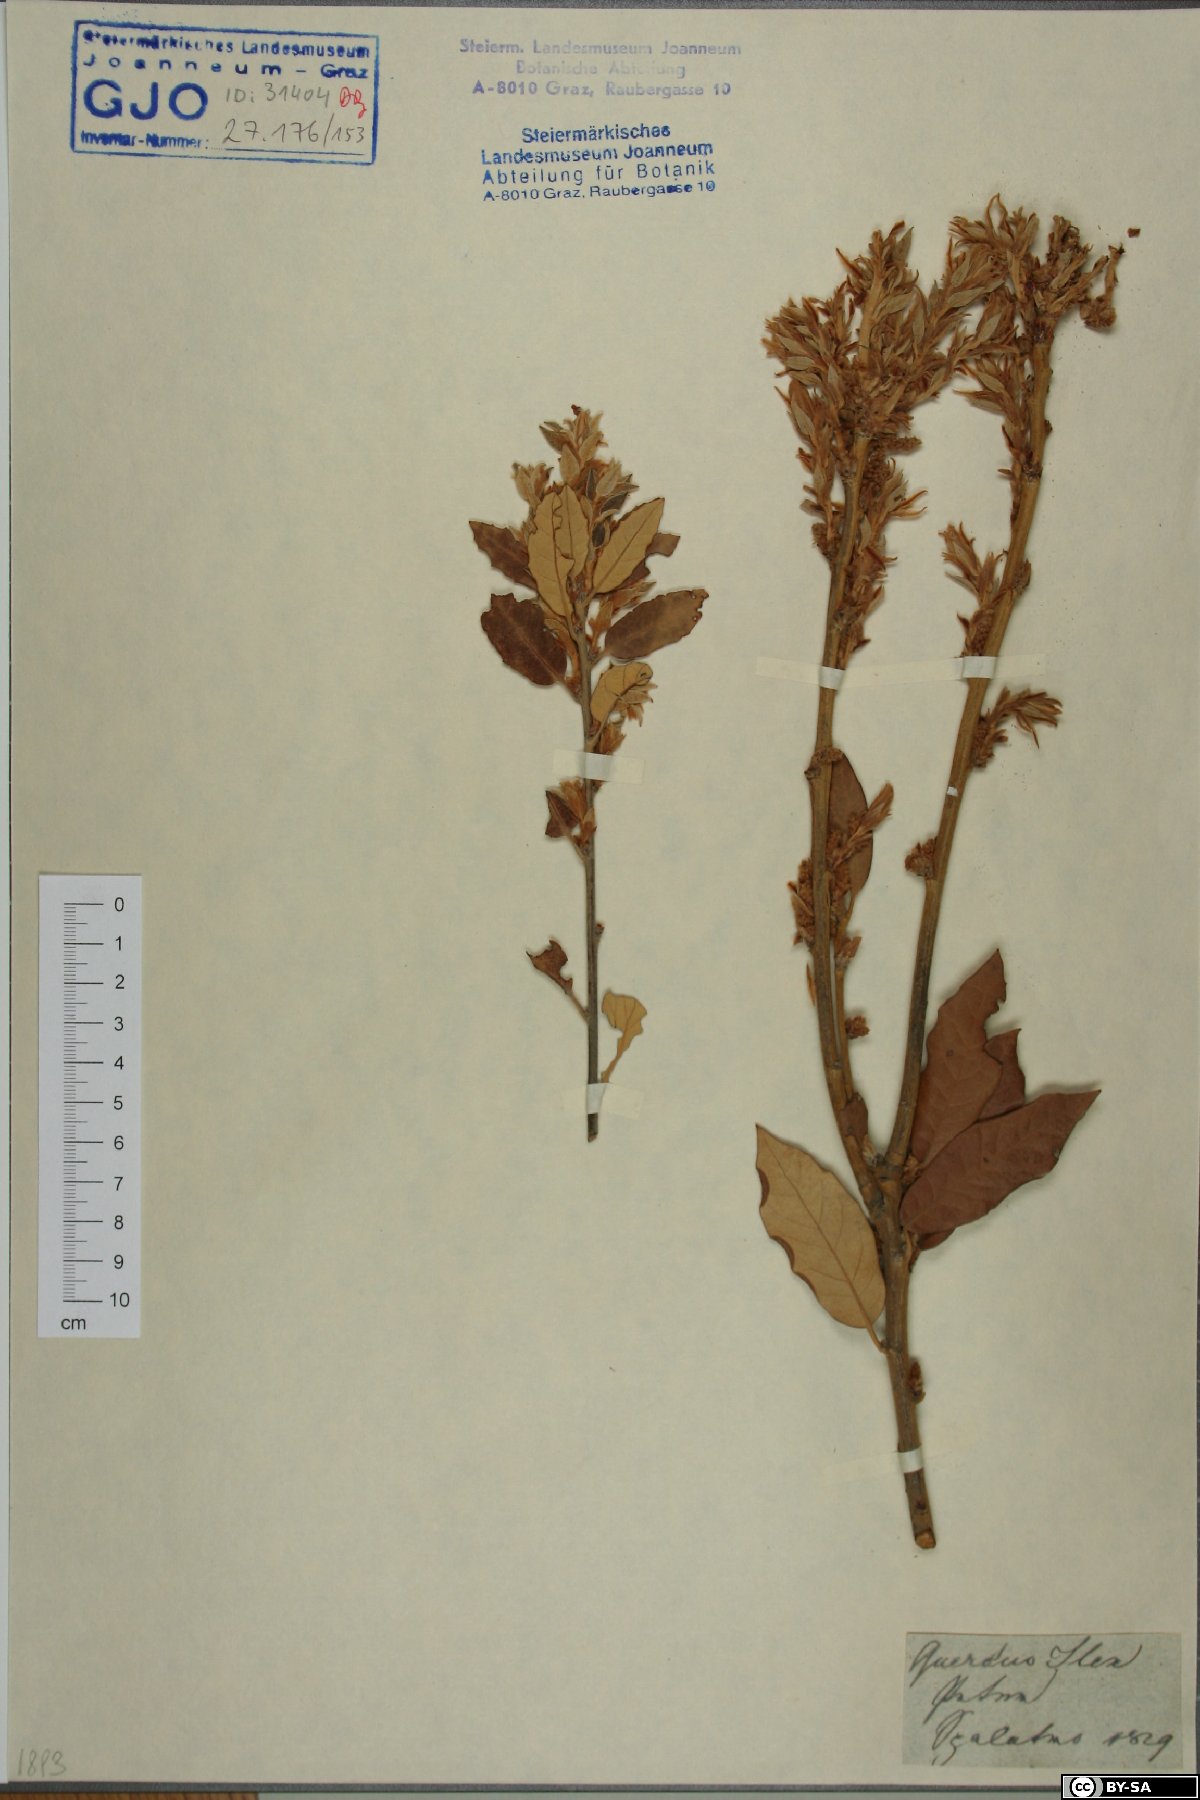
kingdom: Plantae
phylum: Tracheophyta
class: Magnoliopsida
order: Fagales
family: Fagaceae
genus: Quercus
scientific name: Quercus ilex
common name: Evergreen oak
